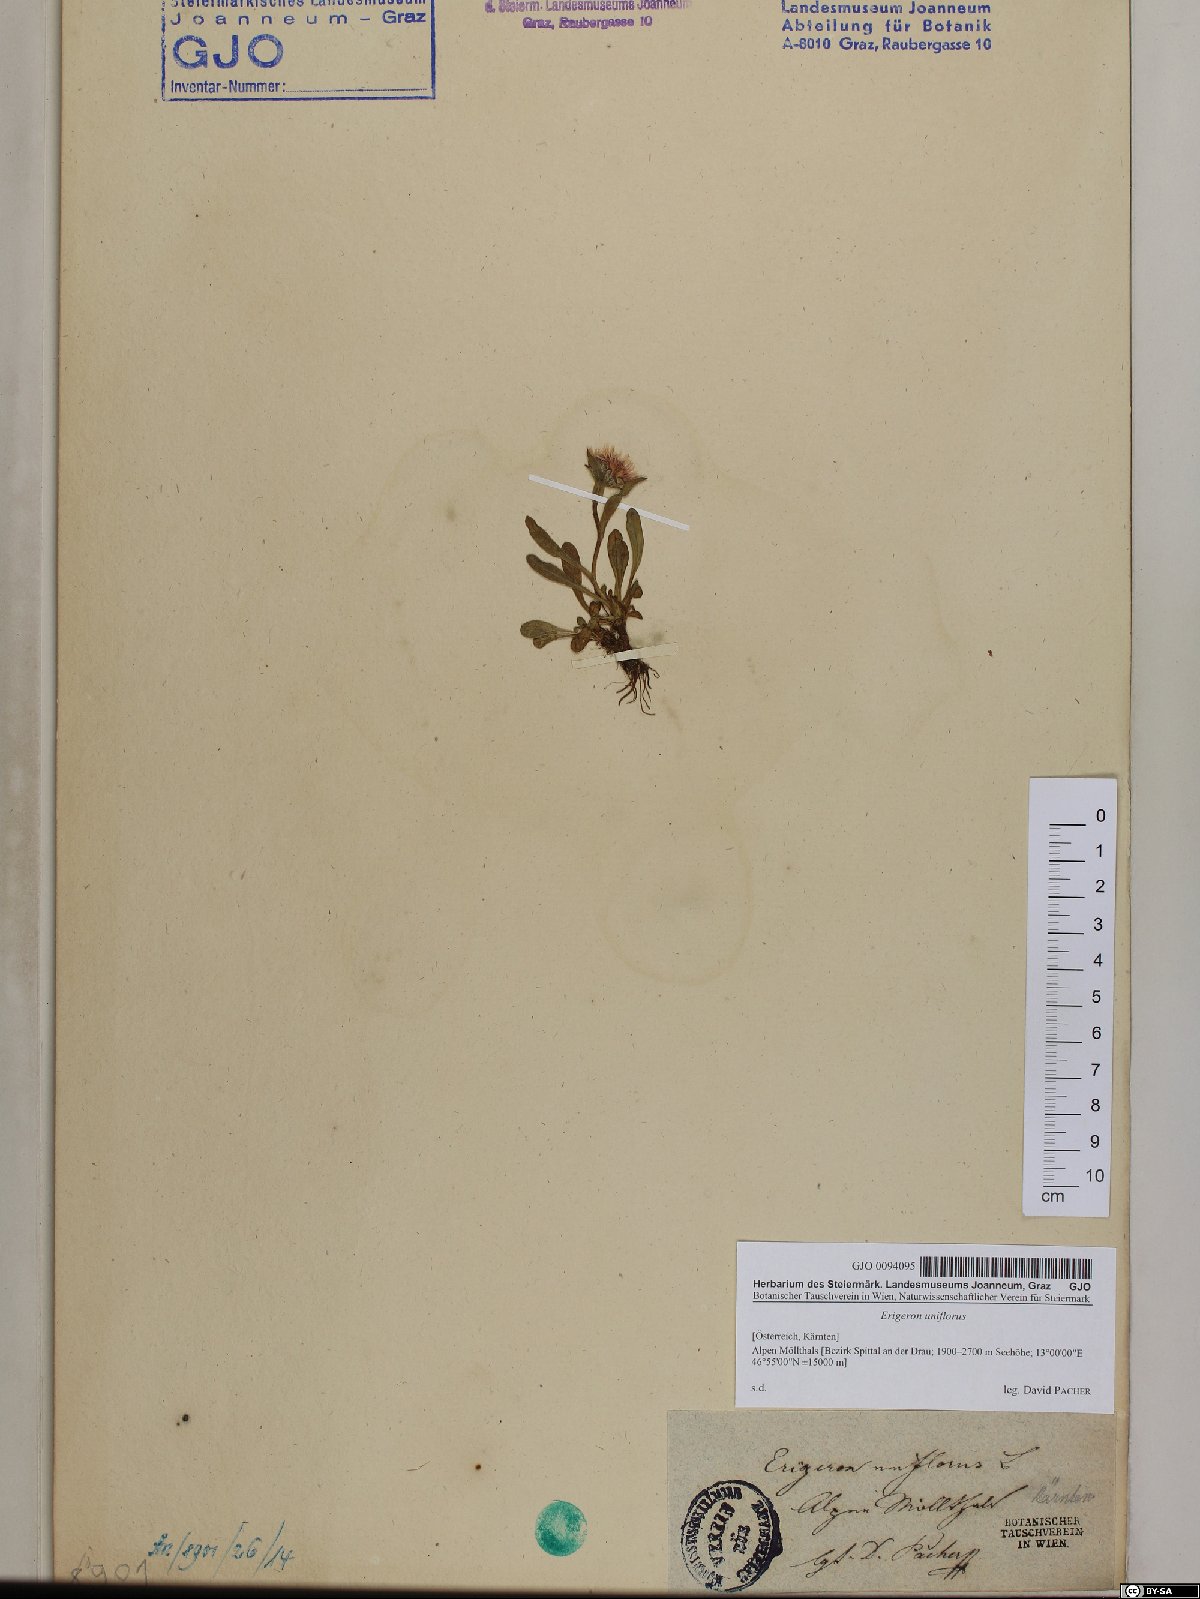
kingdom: Plantae
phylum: Tracheophyta
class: Magnoliopsida
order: Asterales
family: Asteraceae
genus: Erigeron
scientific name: Erigeron uniflorus
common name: Northern daisy
